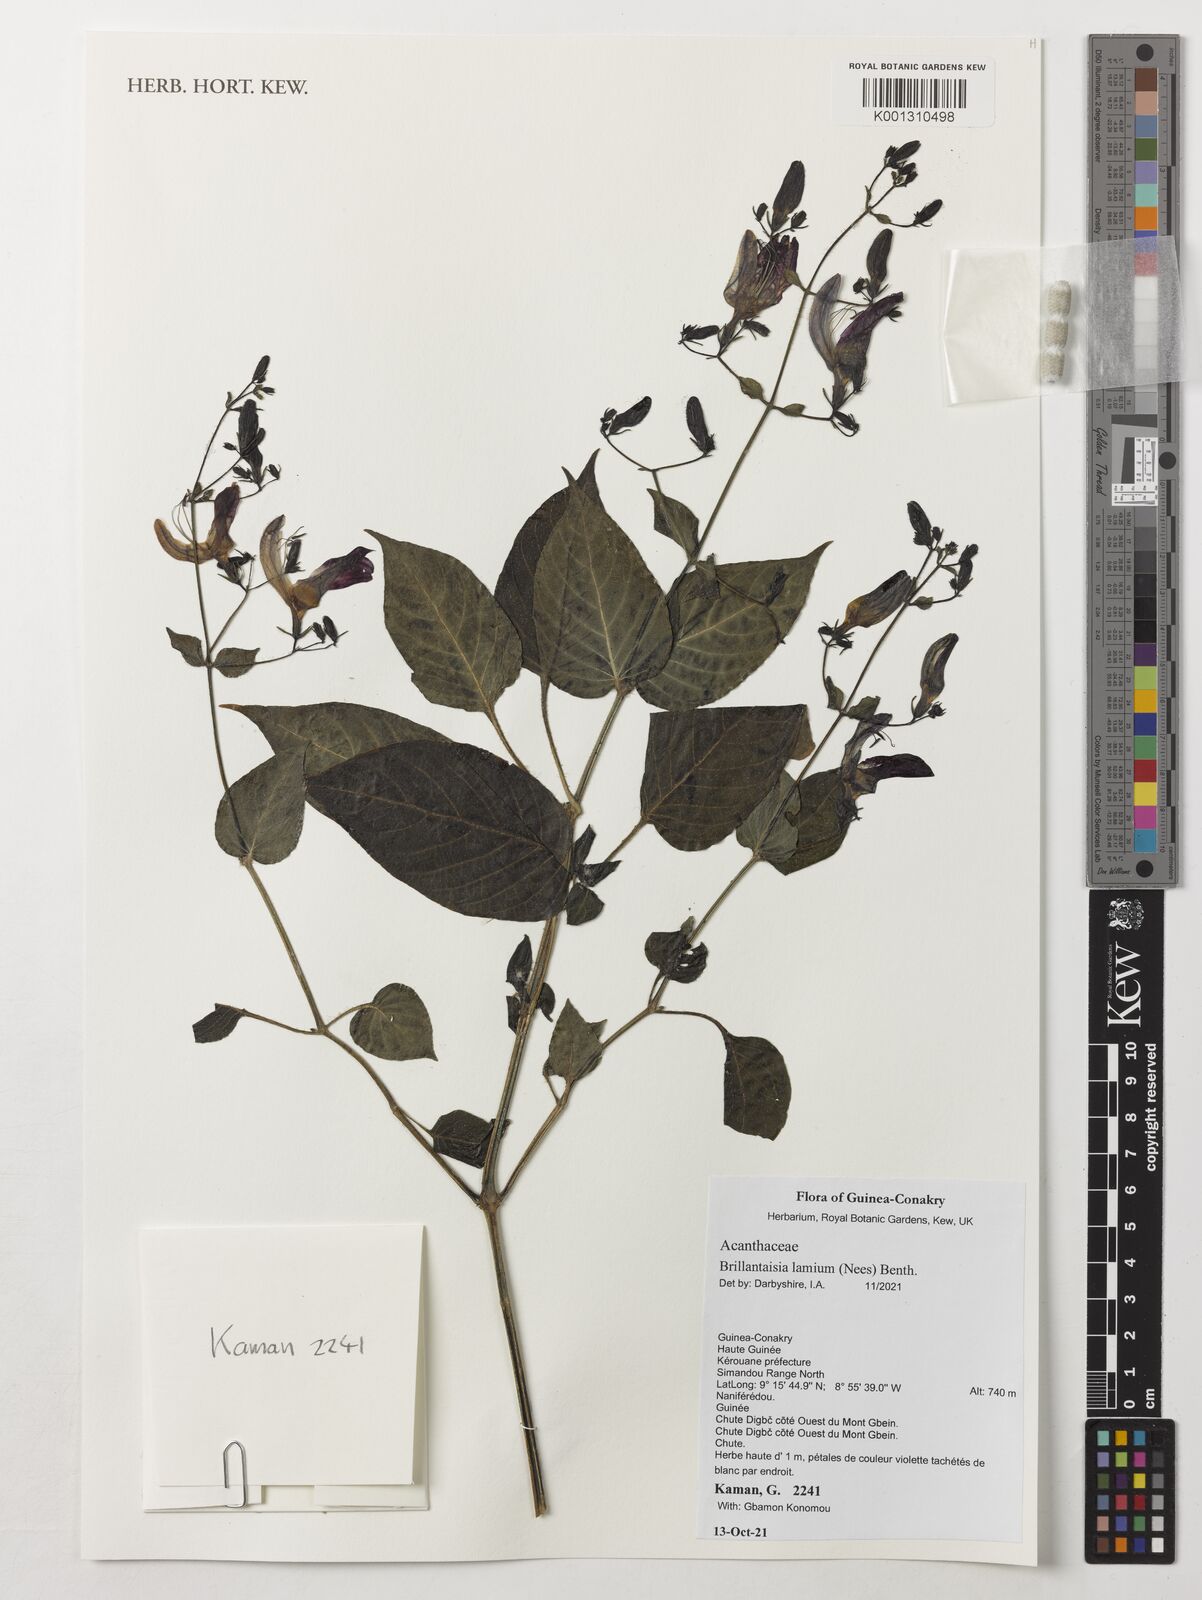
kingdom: Plantae
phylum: Tracheophyta
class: Magnoliopsida
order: Lamiales
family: Acanthaceae
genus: Brillantaisia
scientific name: Brillantaisia lamium
